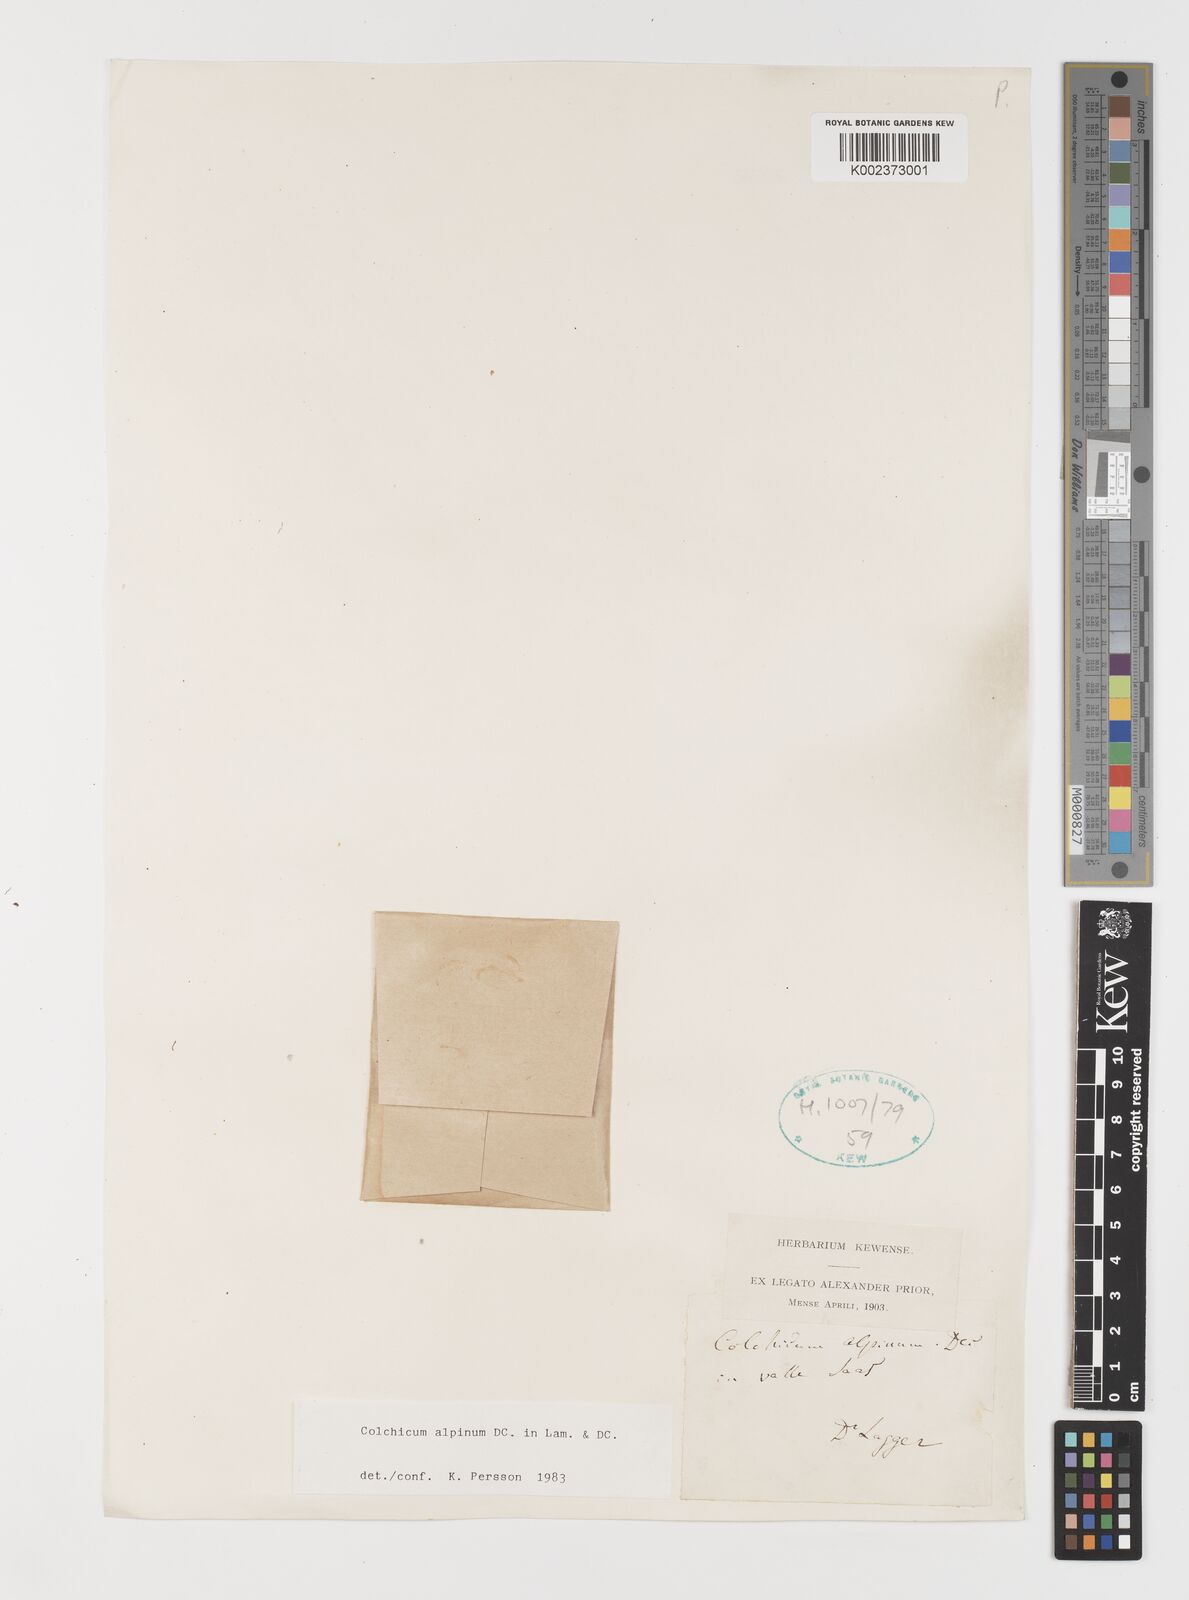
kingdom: Plantae
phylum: Tracheophyta
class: Liliopsida
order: Liliales
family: Colchicaceae
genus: Colchicum
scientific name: Colchicum alpinum
